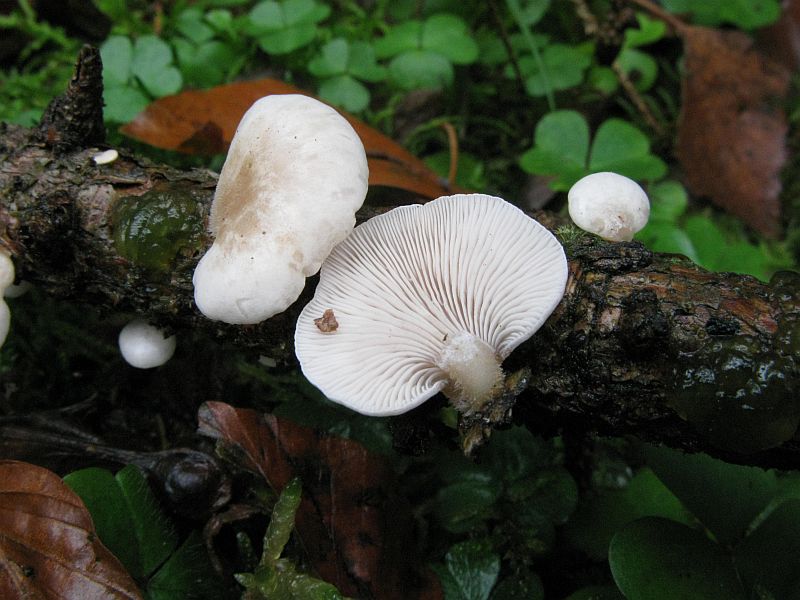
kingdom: Fungi
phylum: Basidiomycota
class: Agaricomycetes
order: Agaricales
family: Mycenaceae
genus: Panellus
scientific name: Panellus mitis
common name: mild epaulethat
